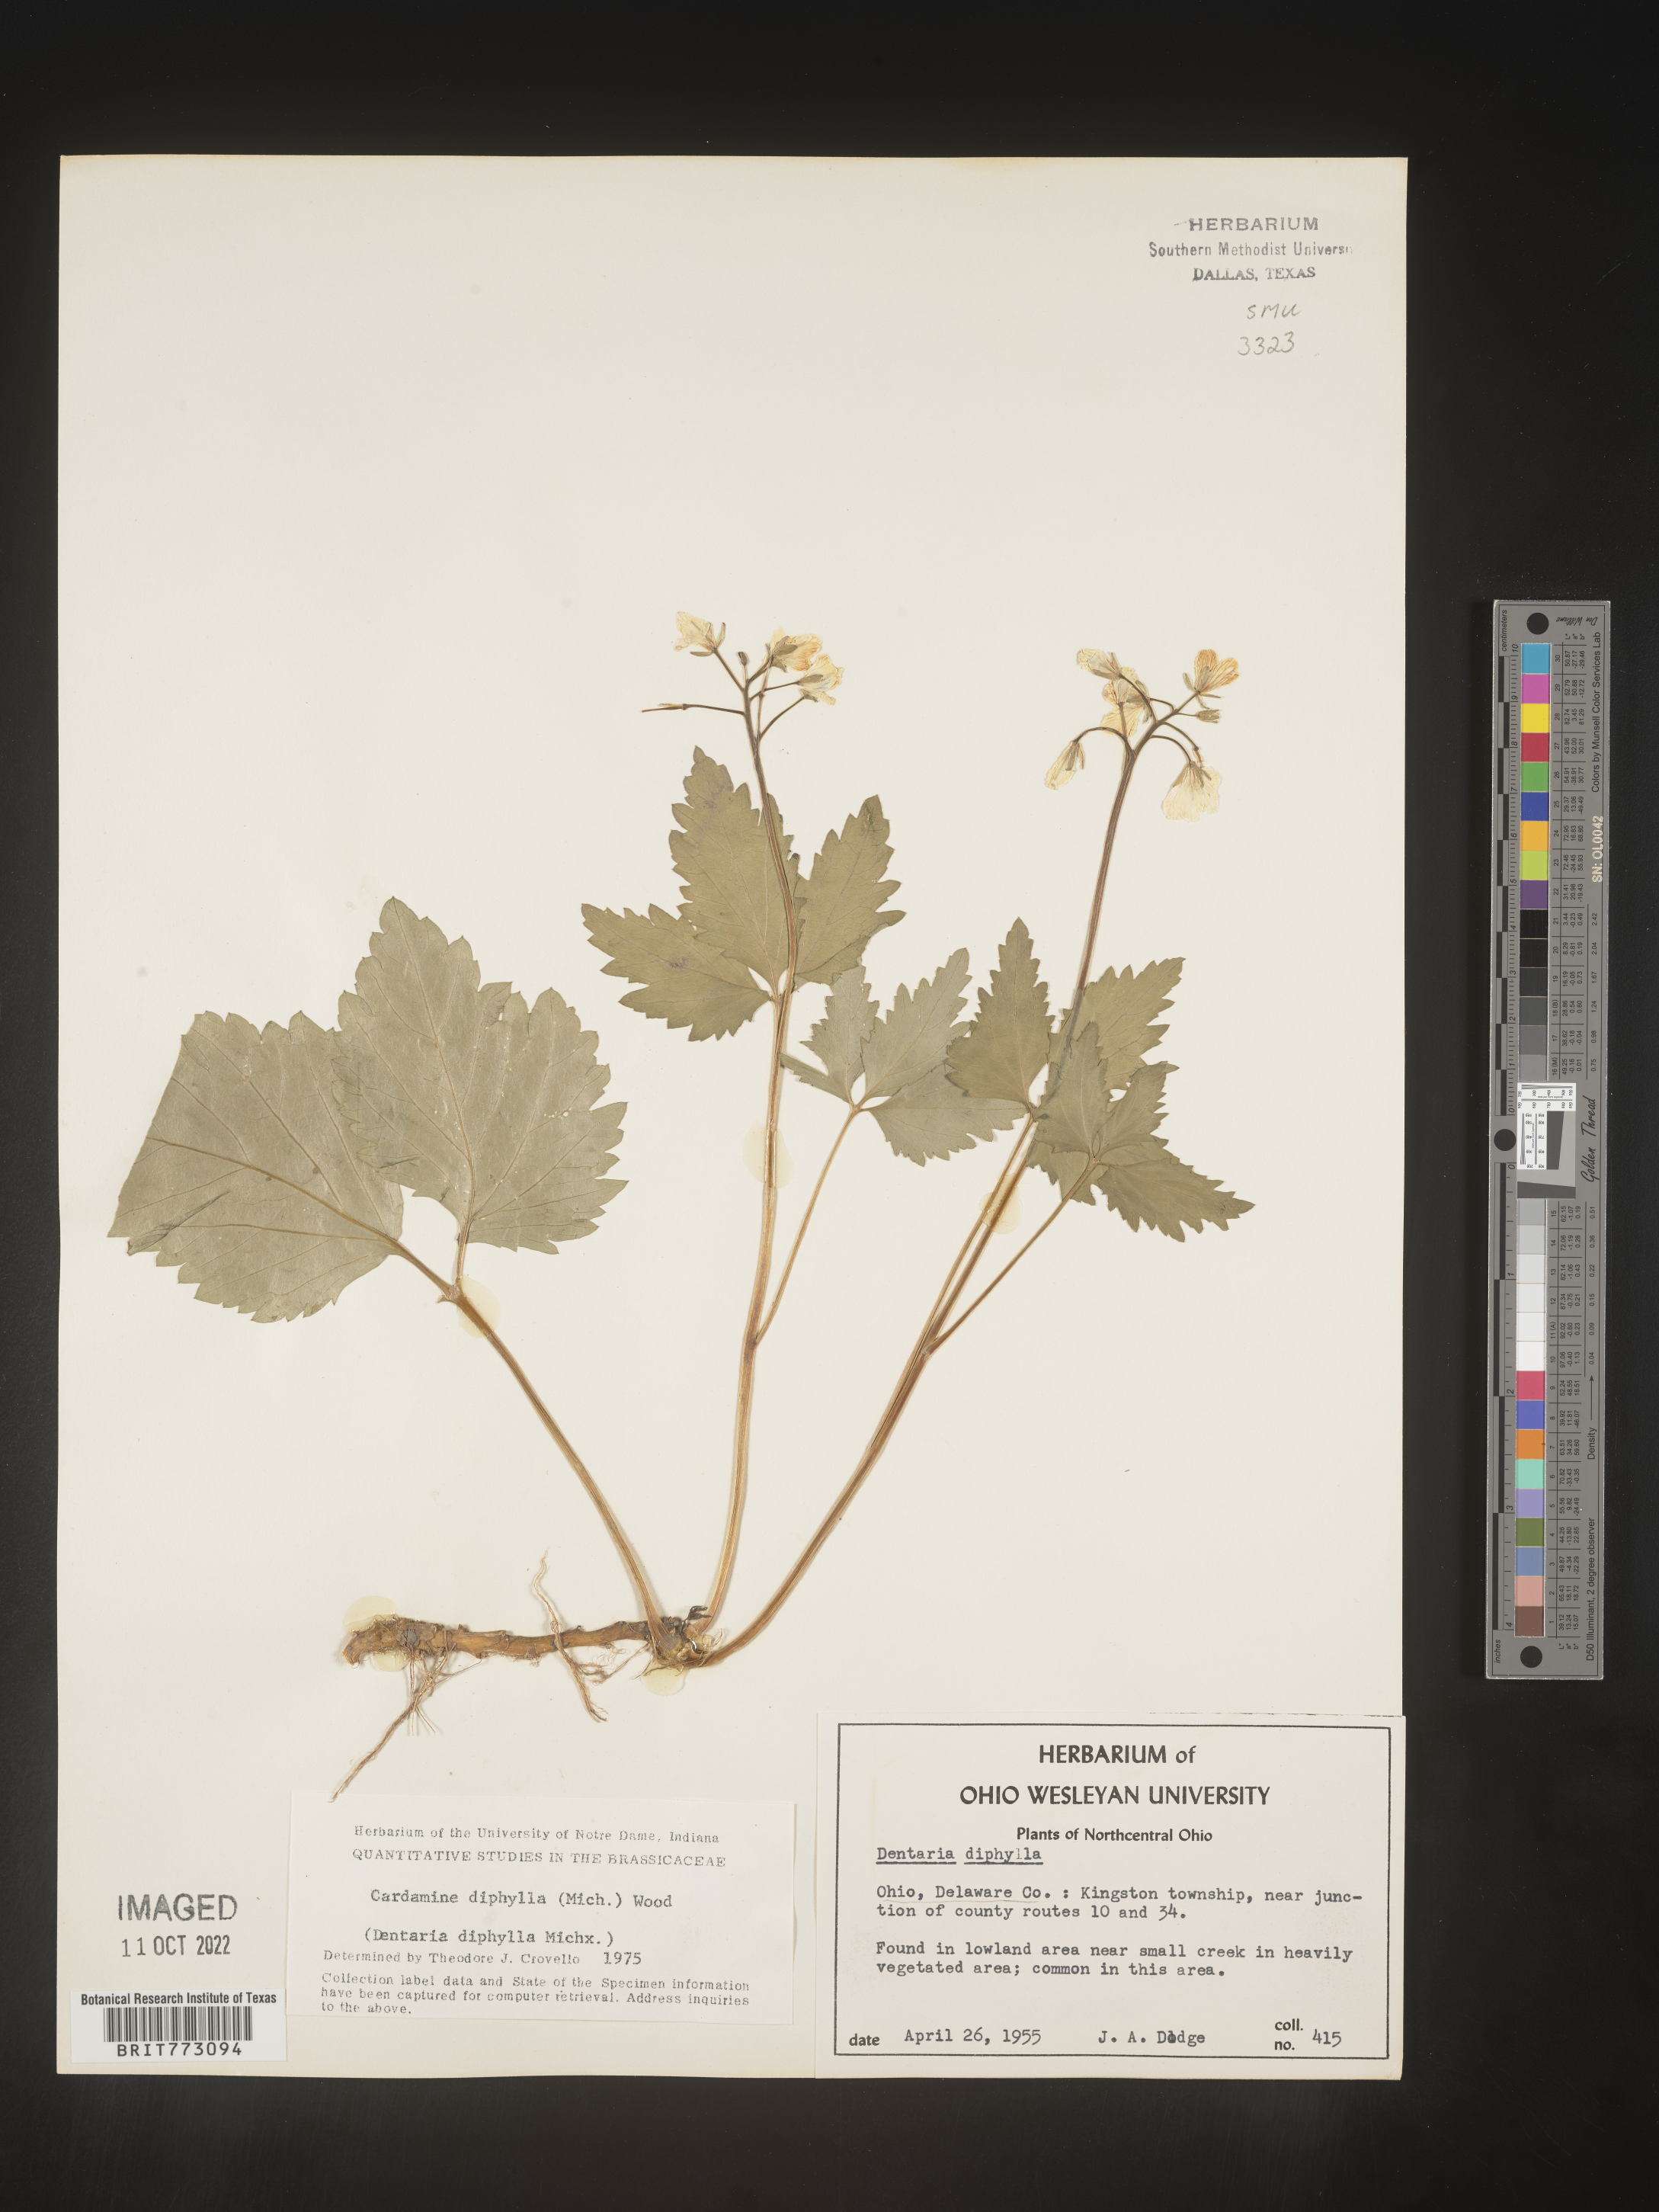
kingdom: Plantae
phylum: Tracheophyta
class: Magnoliopsida
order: Brassicales
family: Brassicaceae
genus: Cardamine
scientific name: Cardamine diphylla
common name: Broad-leaved toothwort
